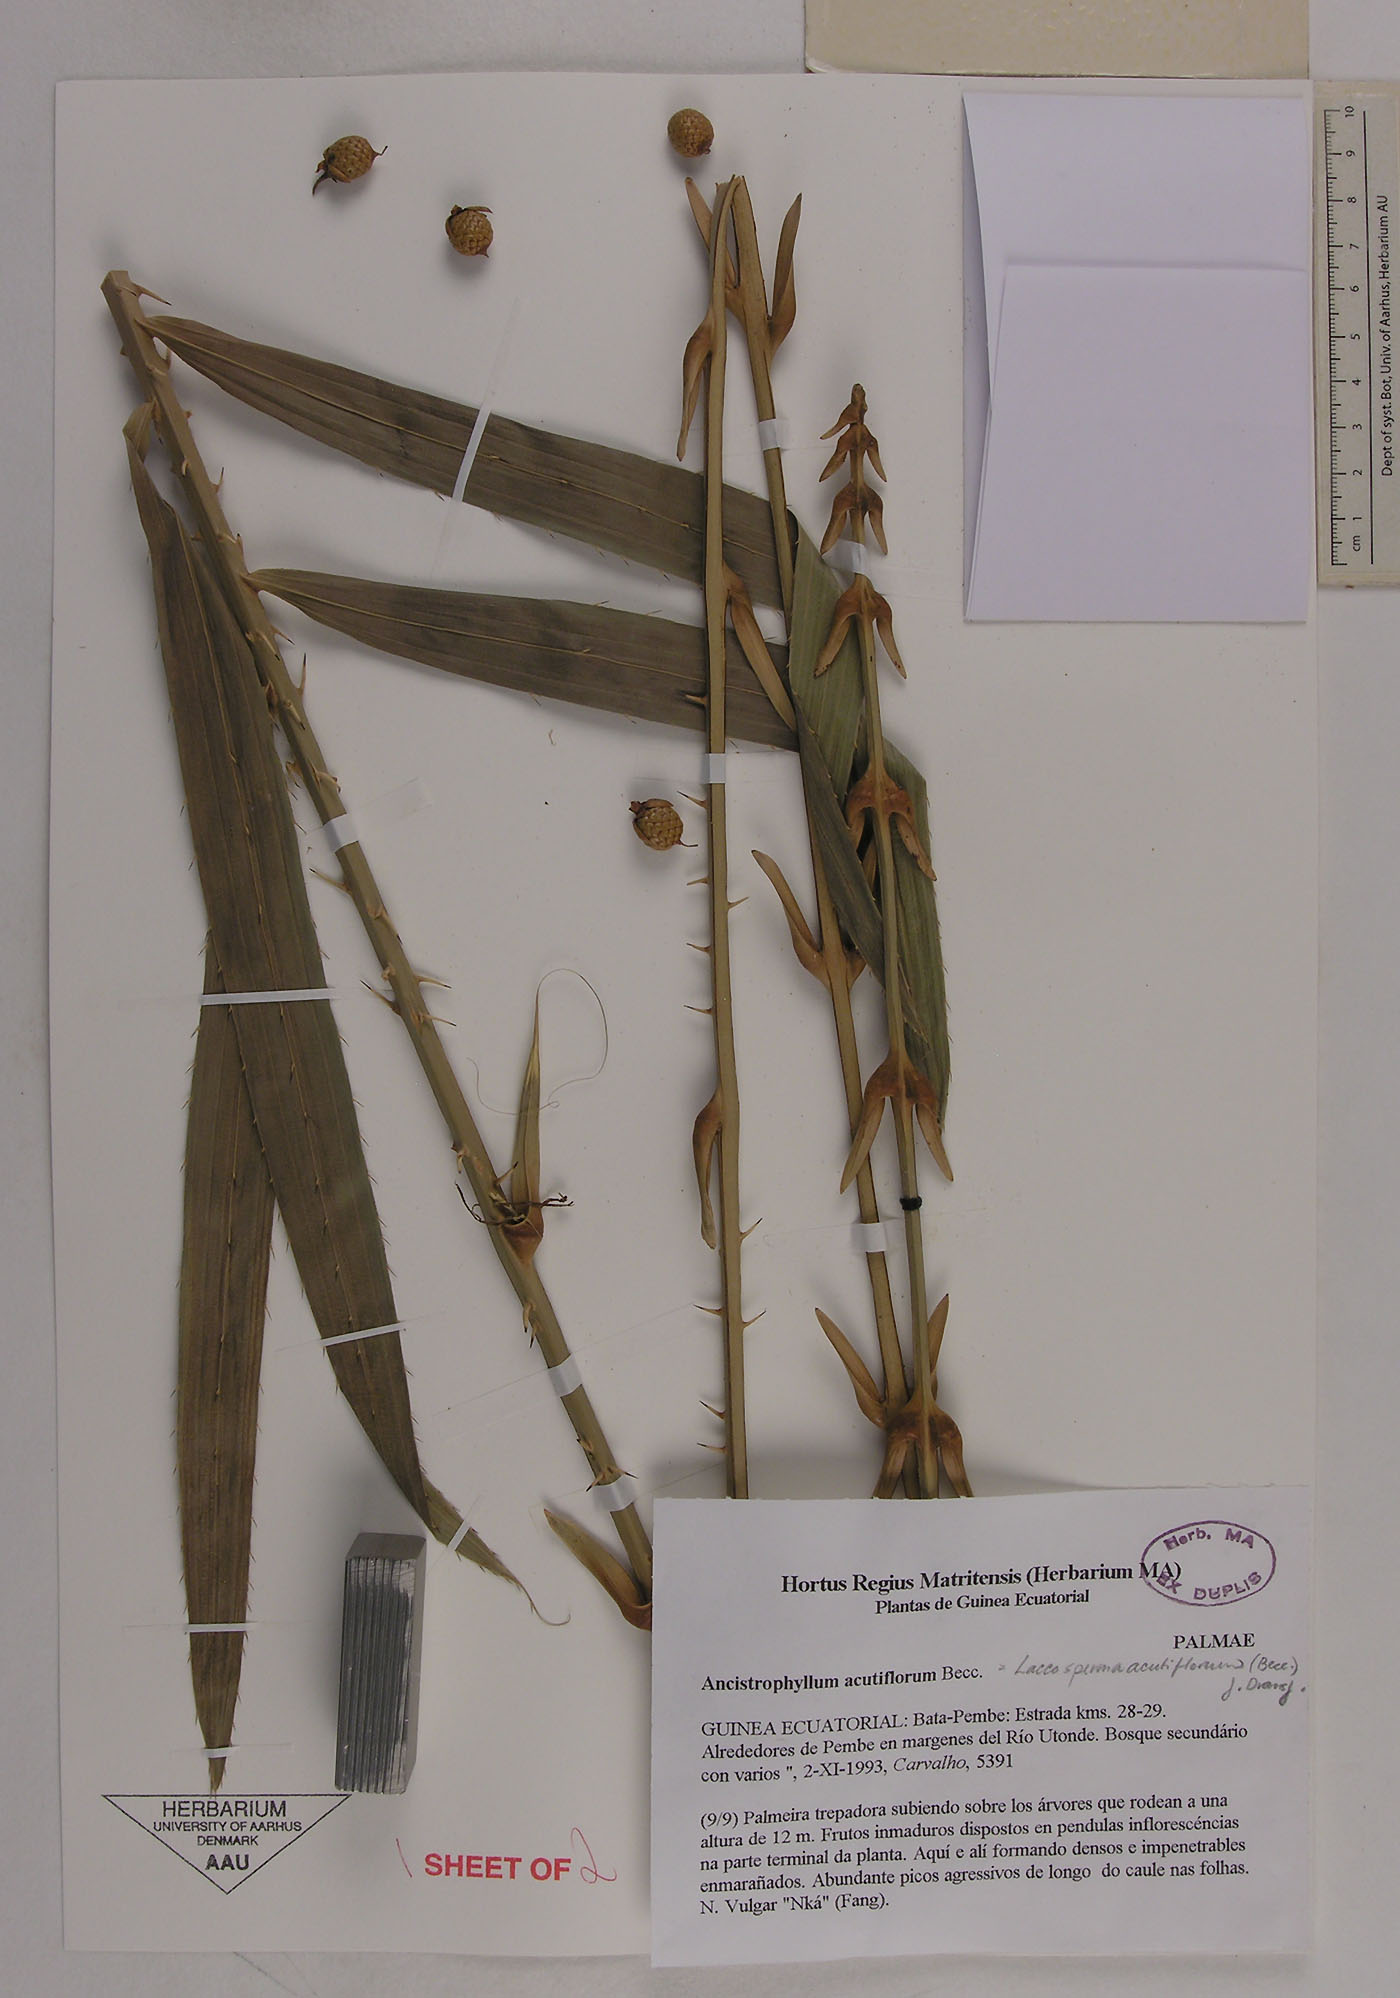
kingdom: Plantae
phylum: Tracheophyta
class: Liliopsida
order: Arecales
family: Arecaceae
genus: Laccosperma
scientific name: Laccosperma acutiflorum
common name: Rattan
